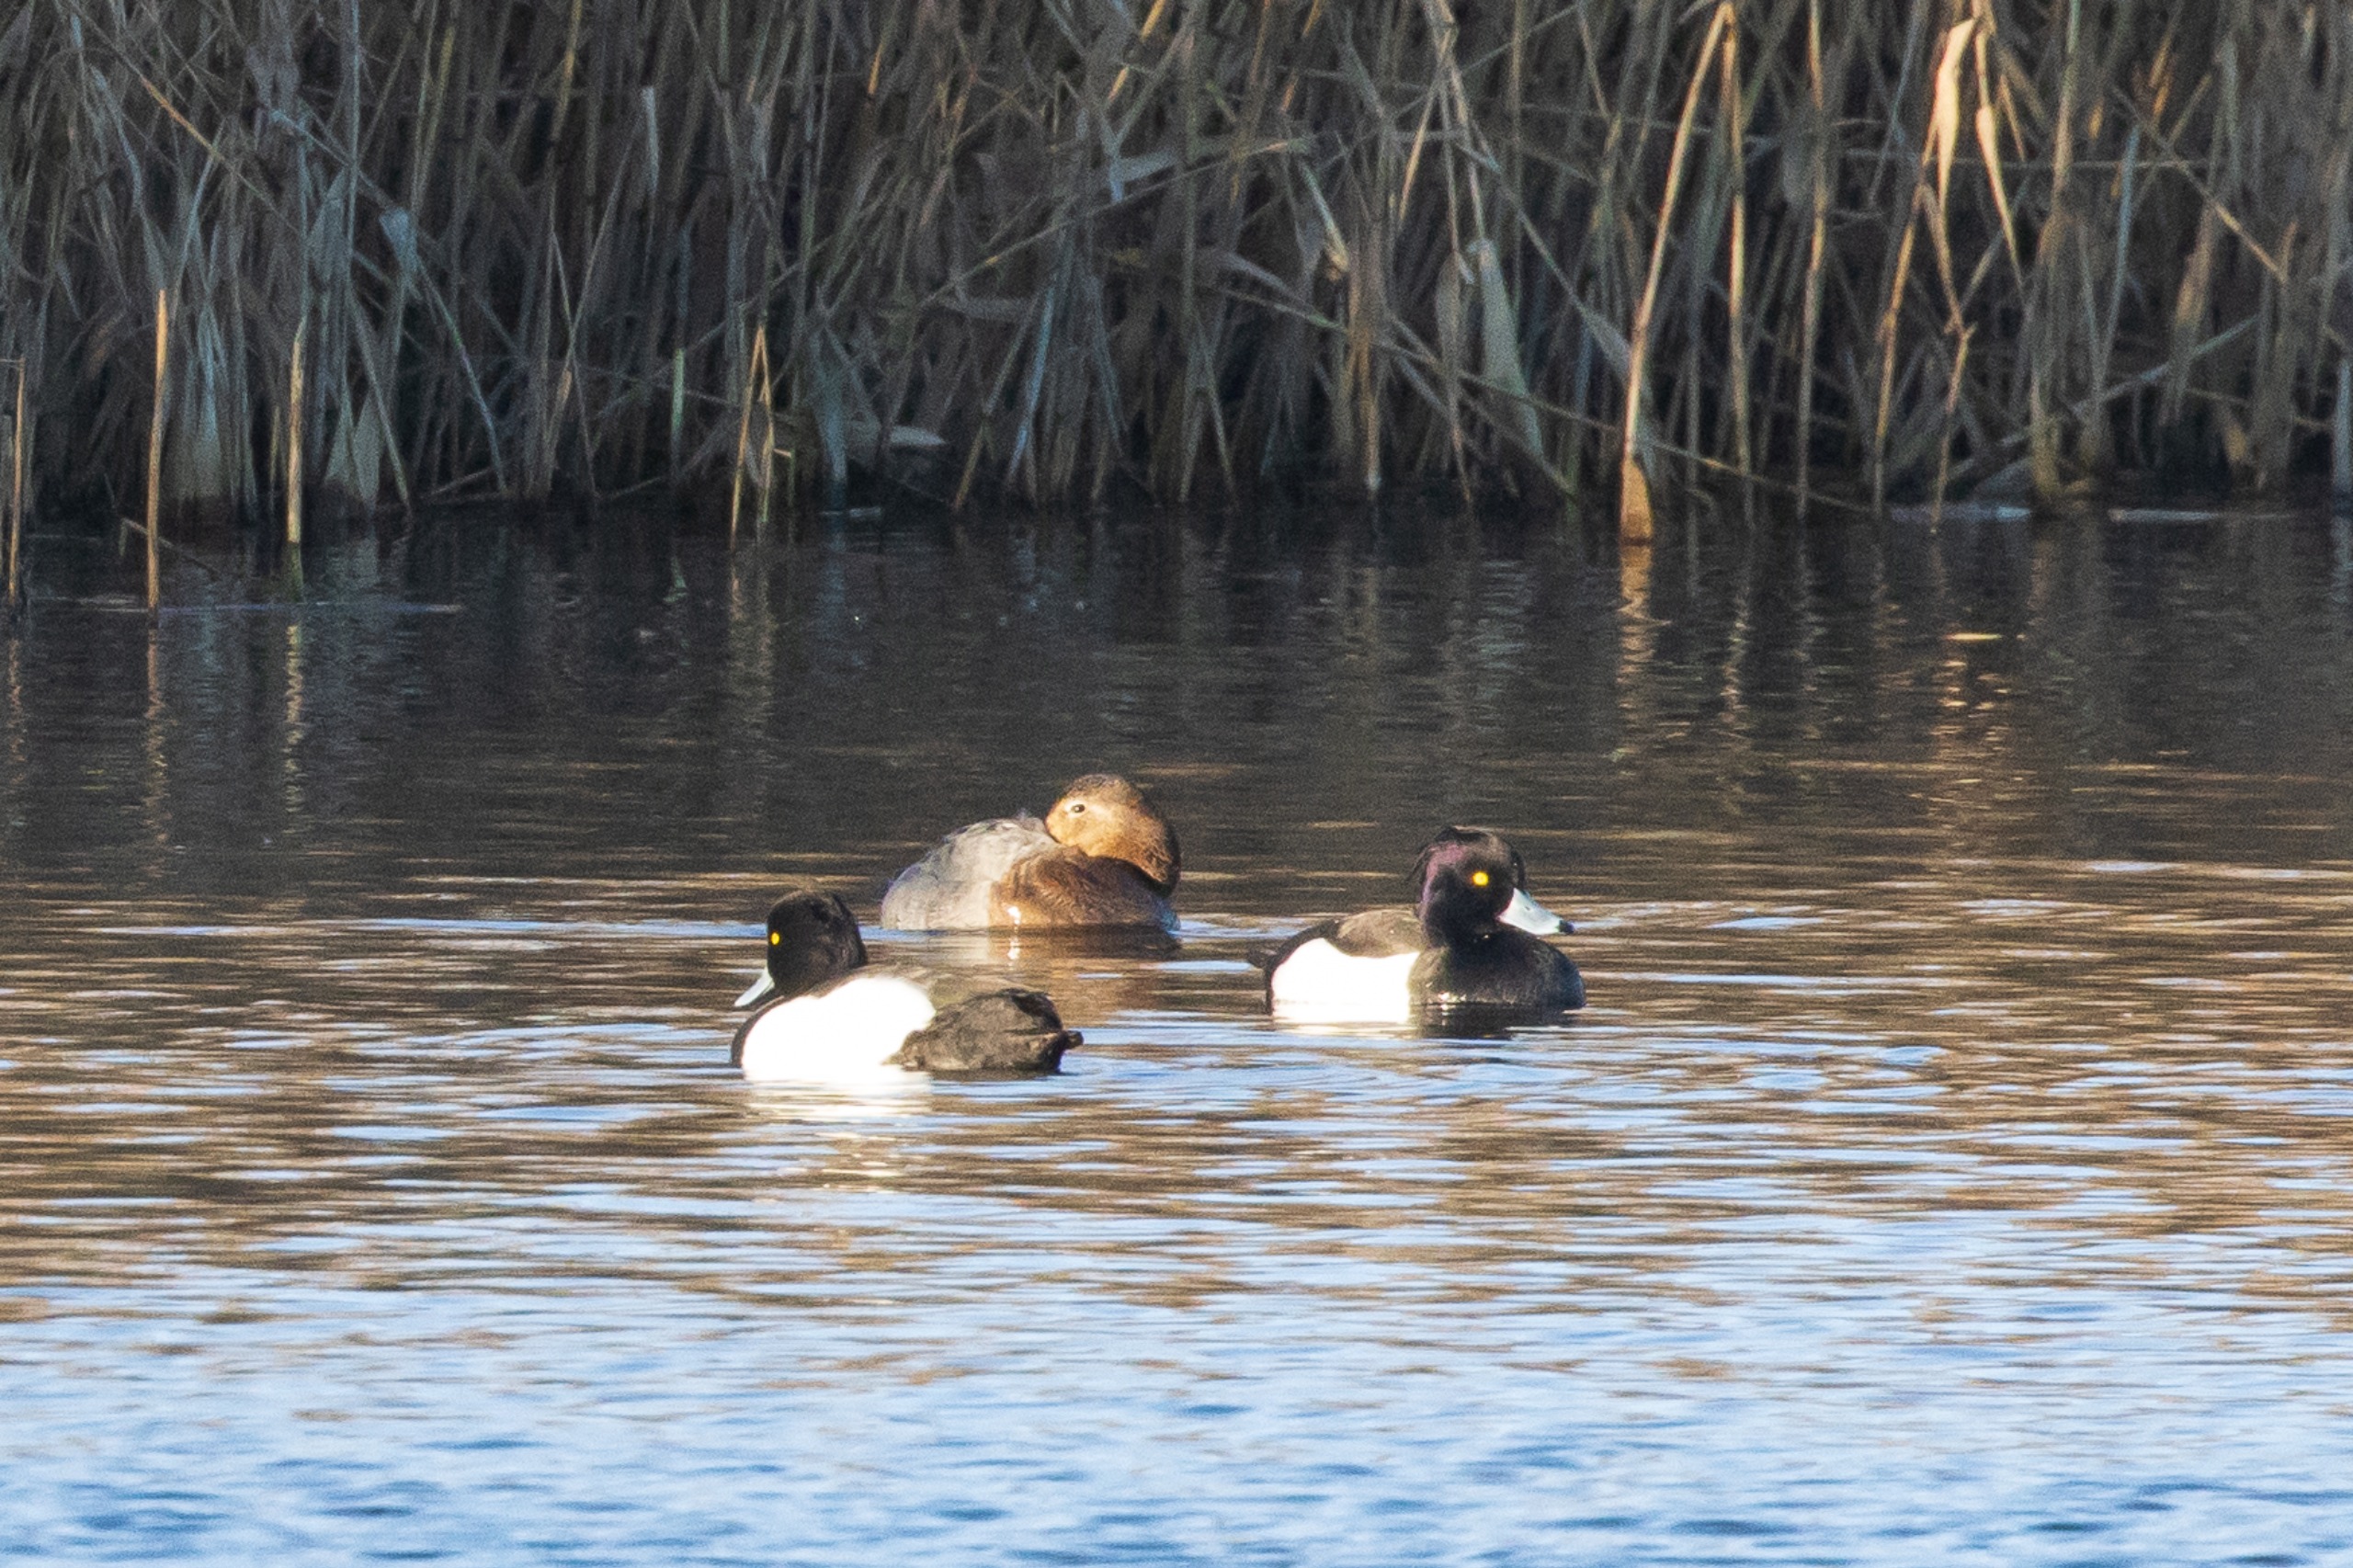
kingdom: Animalia
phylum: Chordata
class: Aves
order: Anseriformes
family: Anatidae
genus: Aythya
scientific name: Aythya fuligula
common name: Troldand
